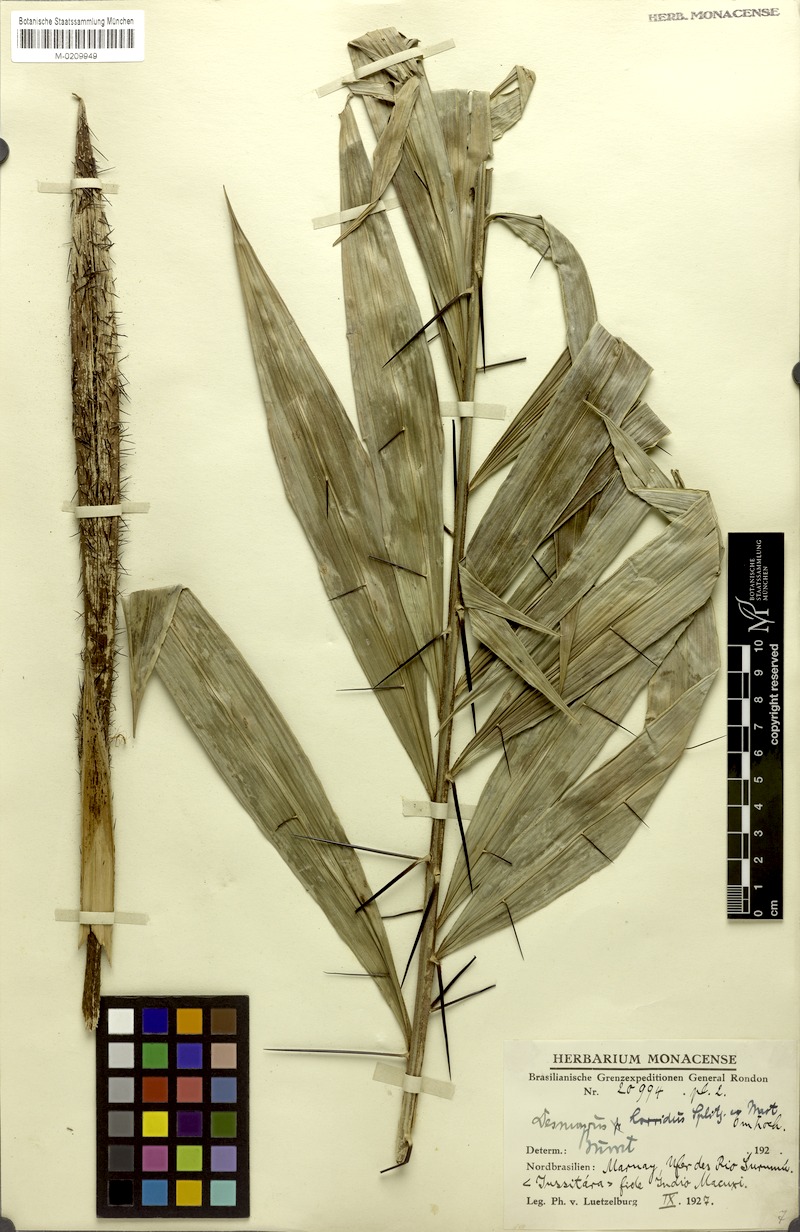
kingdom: Plantae
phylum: Tracheophyta
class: Liliopsida
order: Arecales
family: Arecaceae
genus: Desmoncus
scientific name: Desmoncus orthacanthos
